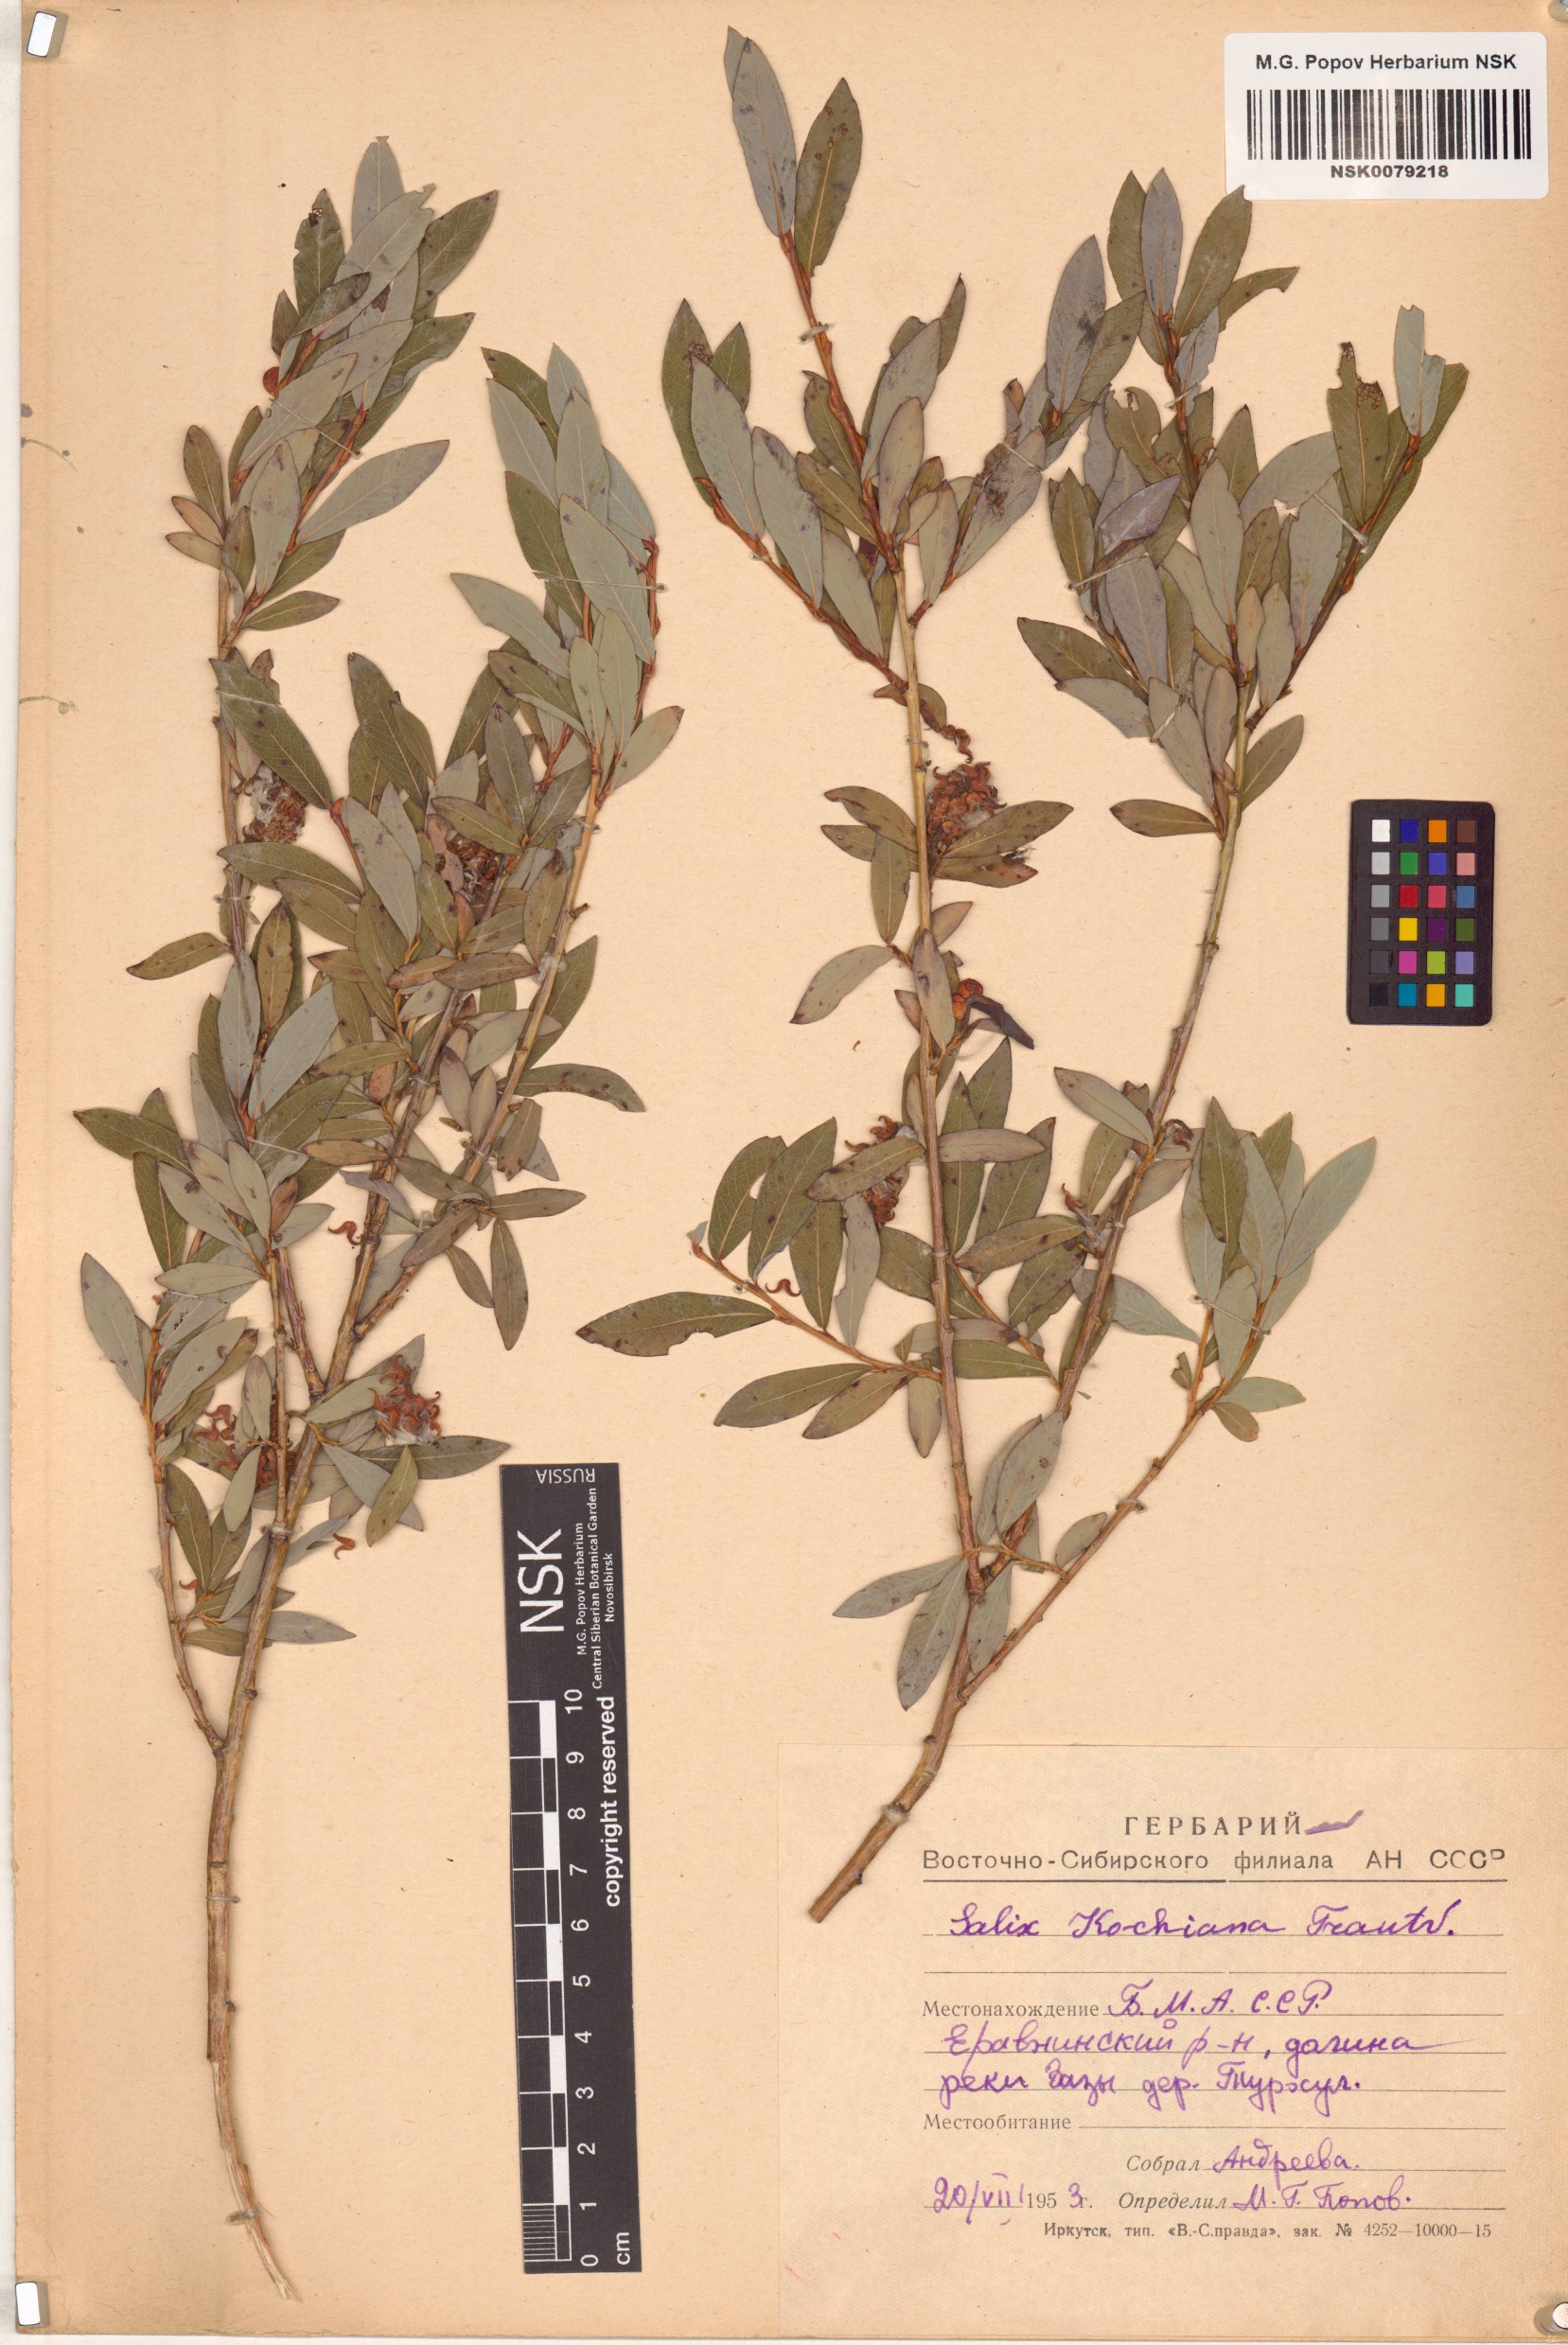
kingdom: Plantae
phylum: Tracheophyta
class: Magnoliopsida
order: Malpighiales
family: Salicaceae
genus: Salix
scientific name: Salix kochiana
